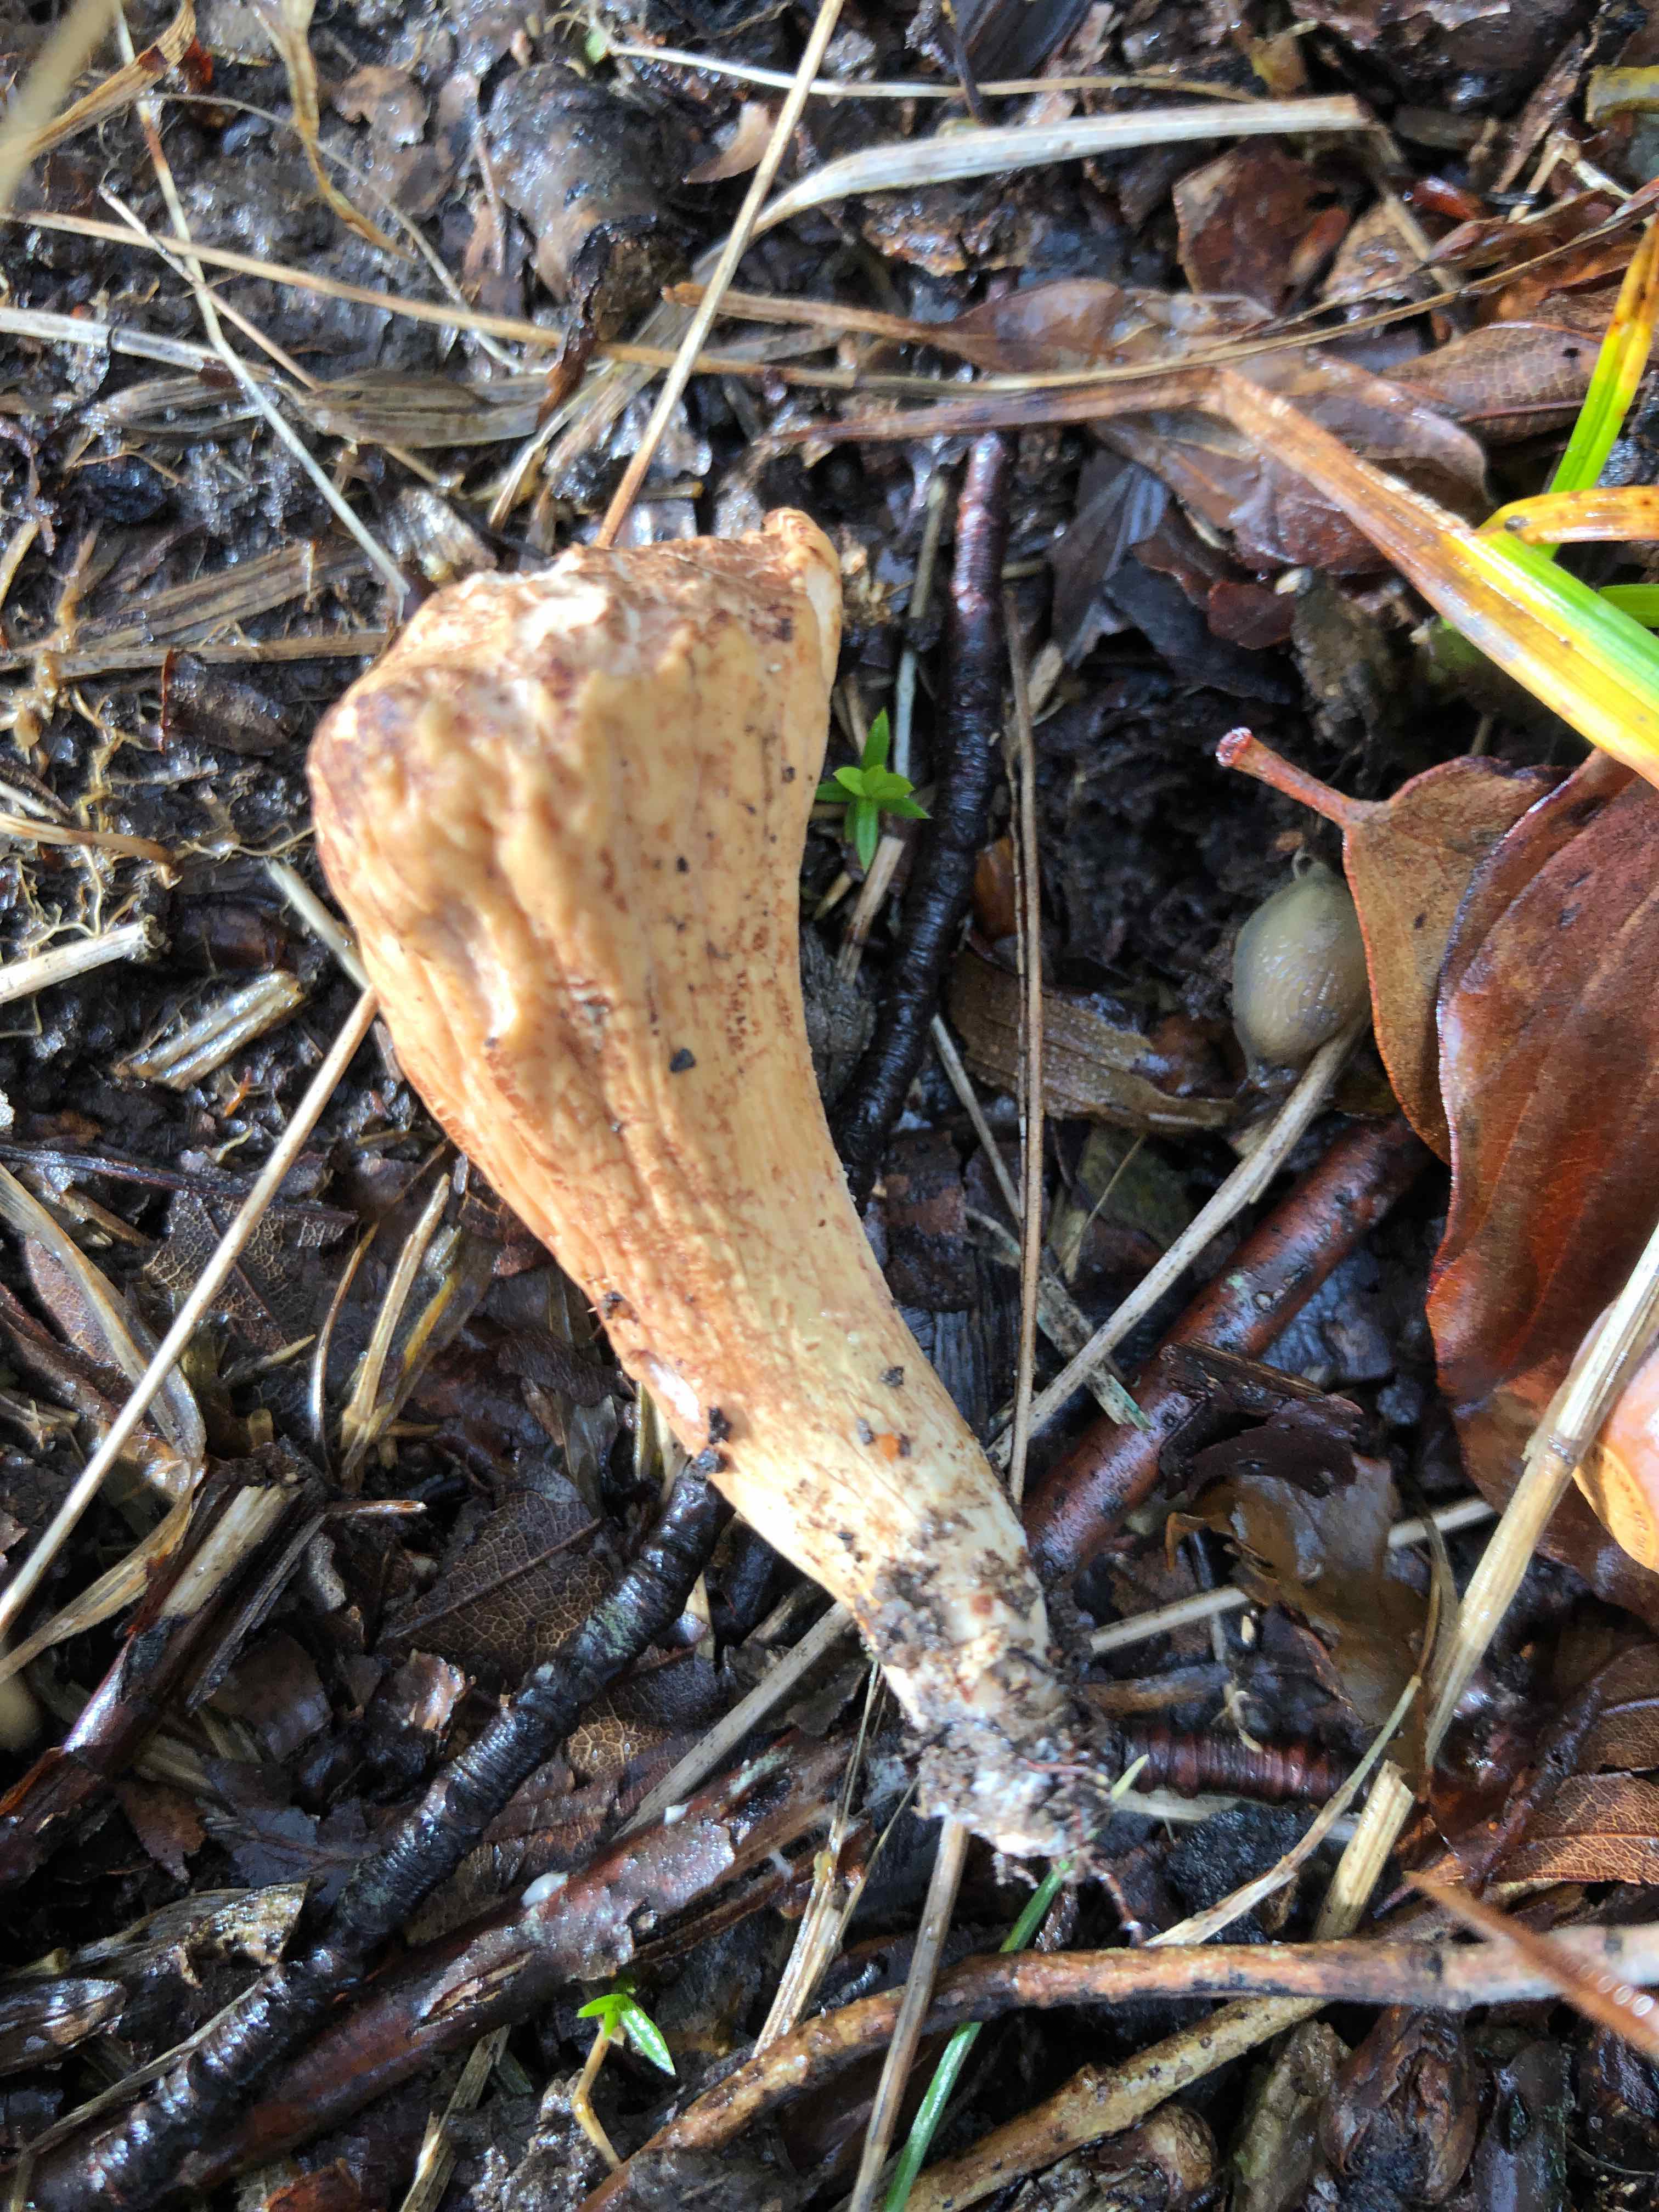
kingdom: Fungi
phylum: Basidiomycota
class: Agaricomycetes
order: Gomphales
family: Clavariadelphaceae
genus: Clavariadelphus
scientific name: Clavariadelphus pistillaris
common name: herkules-kæmpekølle
